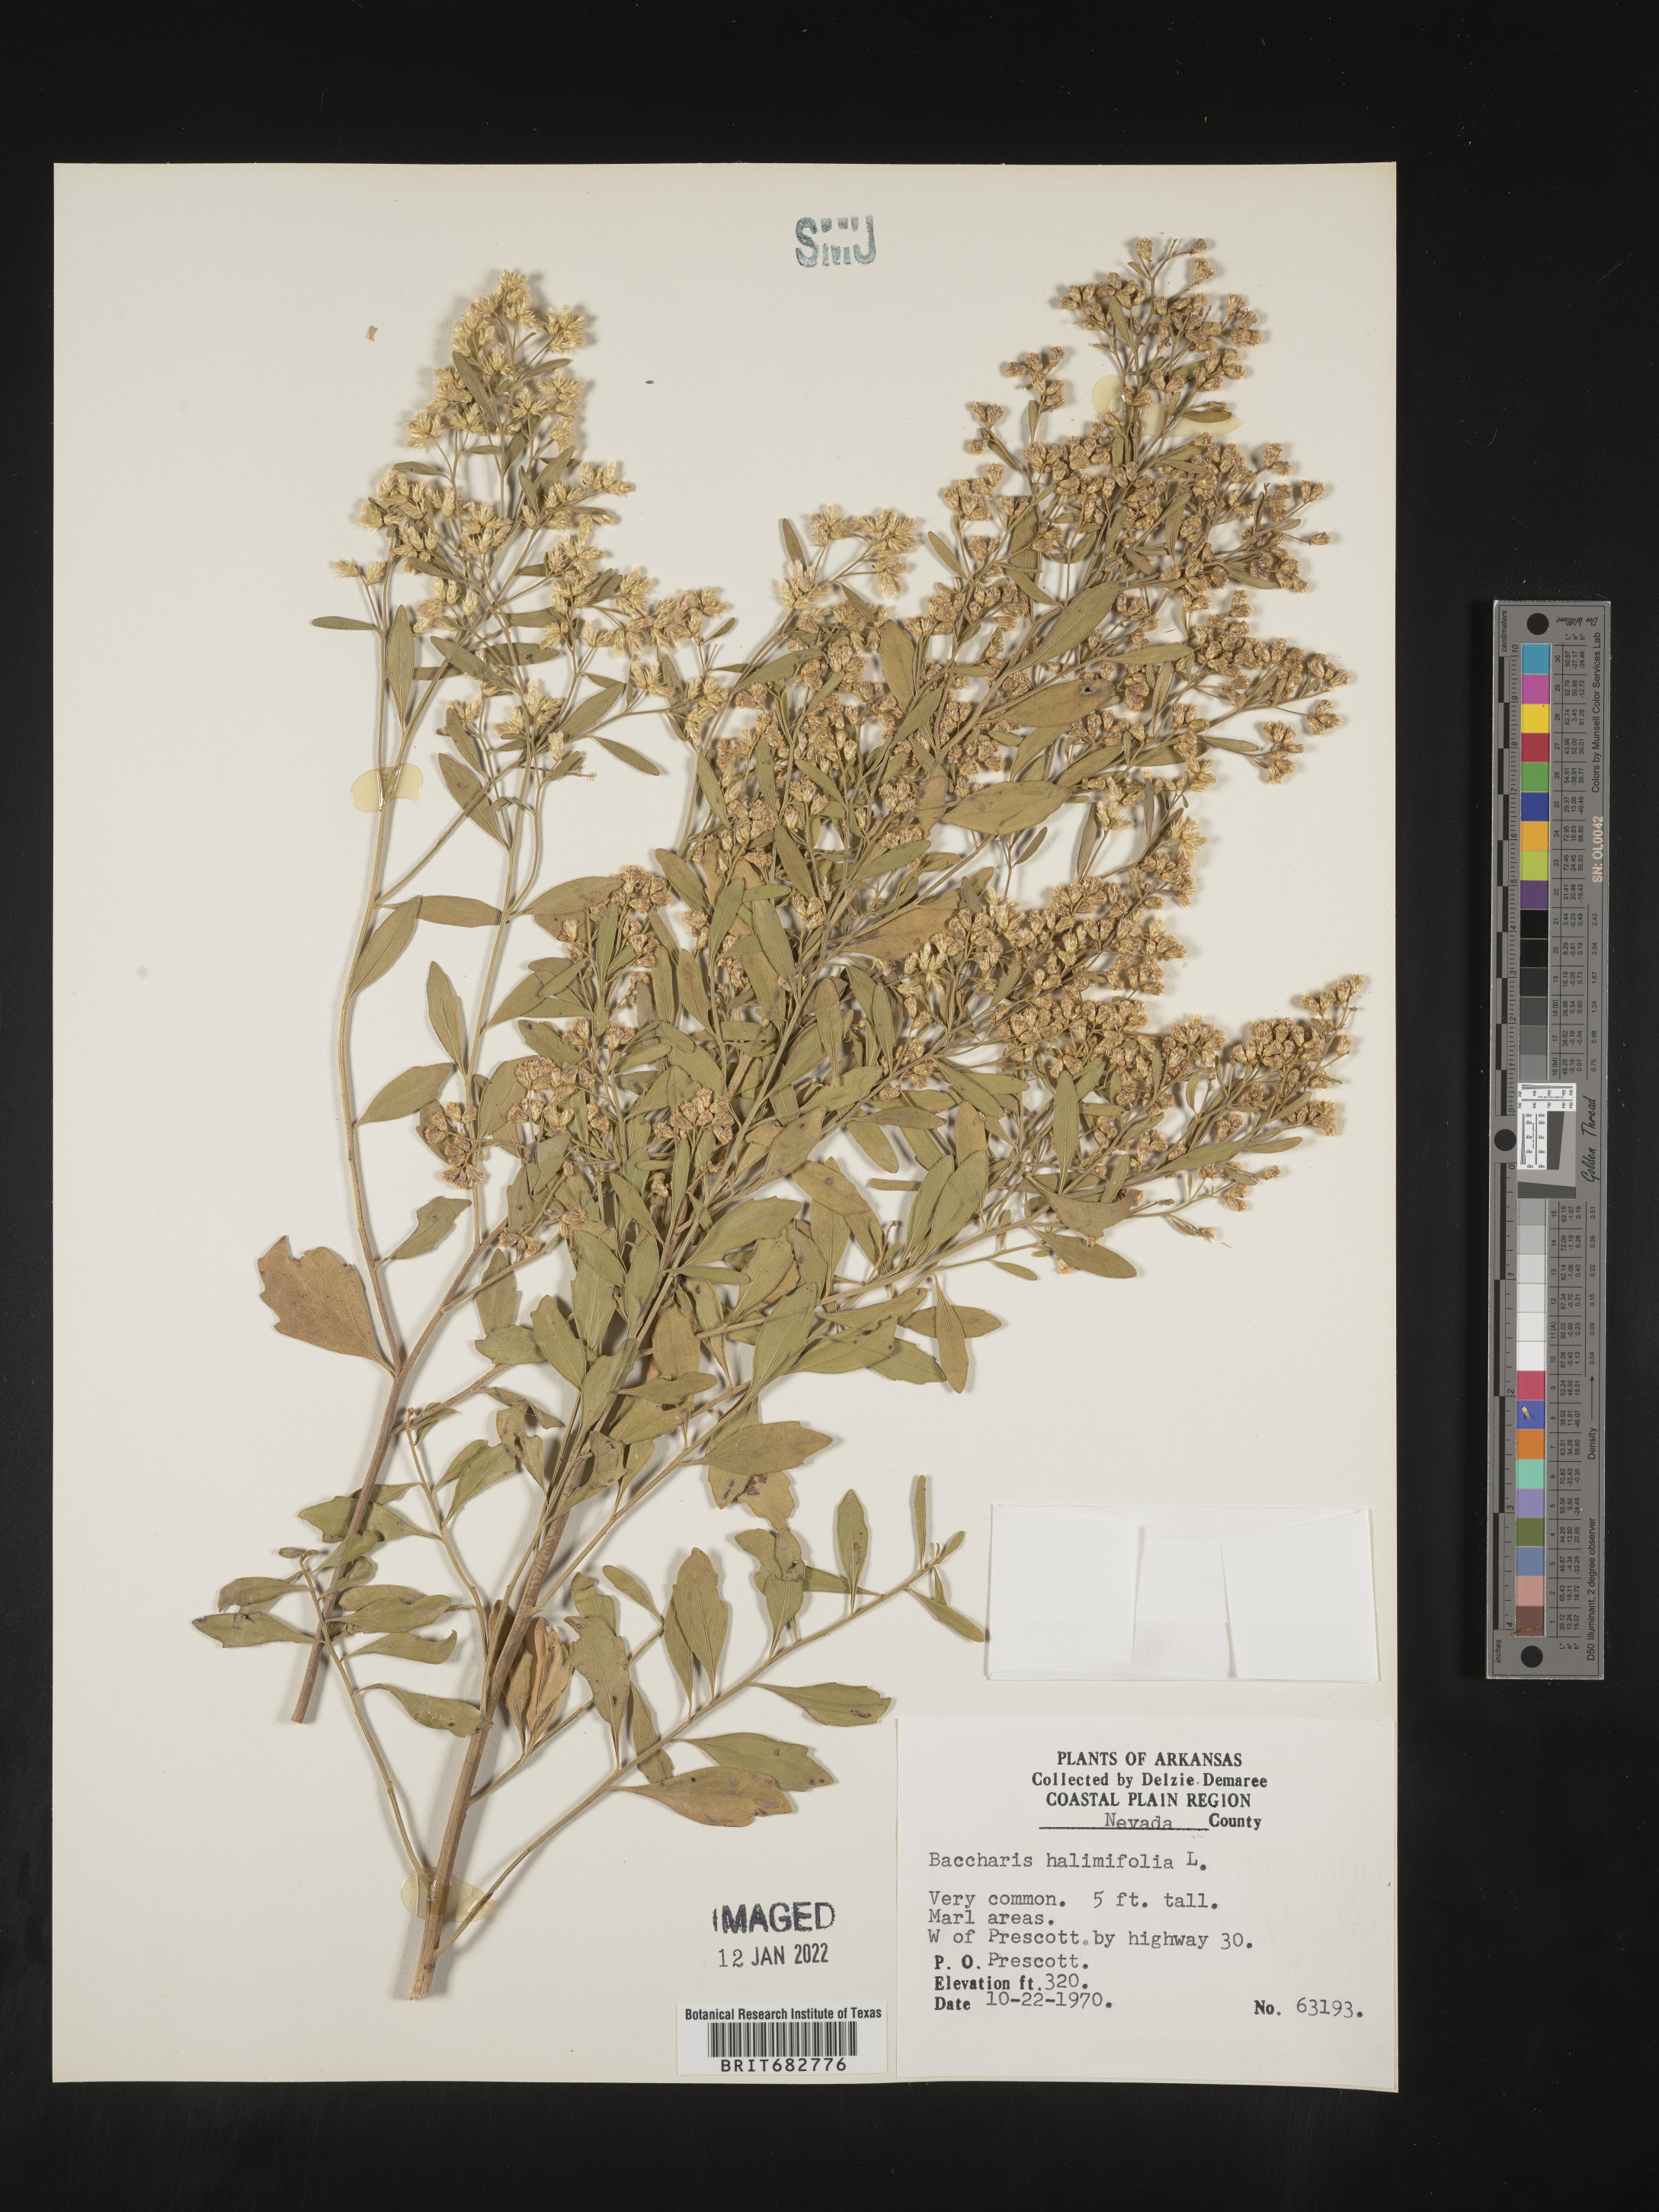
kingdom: Plantae
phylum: Tracheophyta
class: Magnoliopsida
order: Asterales
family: Asteraceae
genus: Nidorella
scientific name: Nidorella ivifolia
